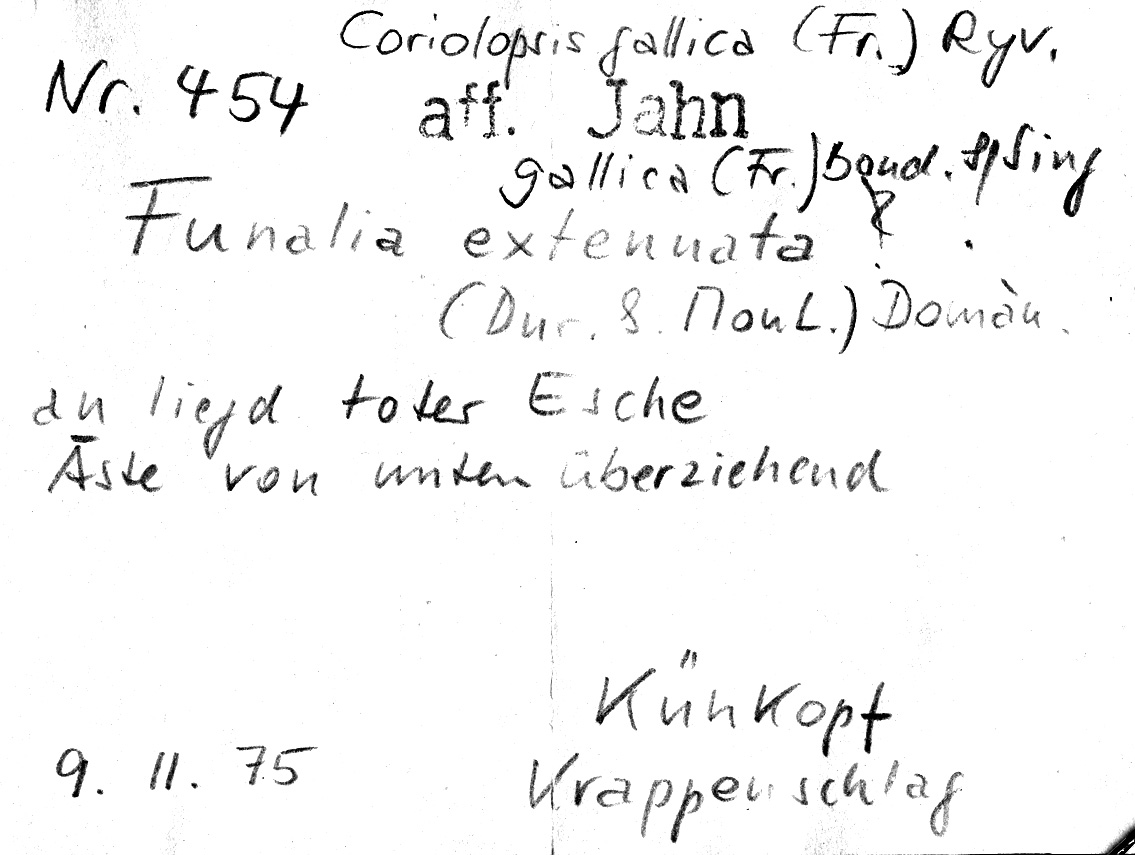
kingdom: Plantae
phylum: Tracheophyta
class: Magnoliopsida
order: Lamiales
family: Oleaceae
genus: Fraxinus
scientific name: Fraxinus
